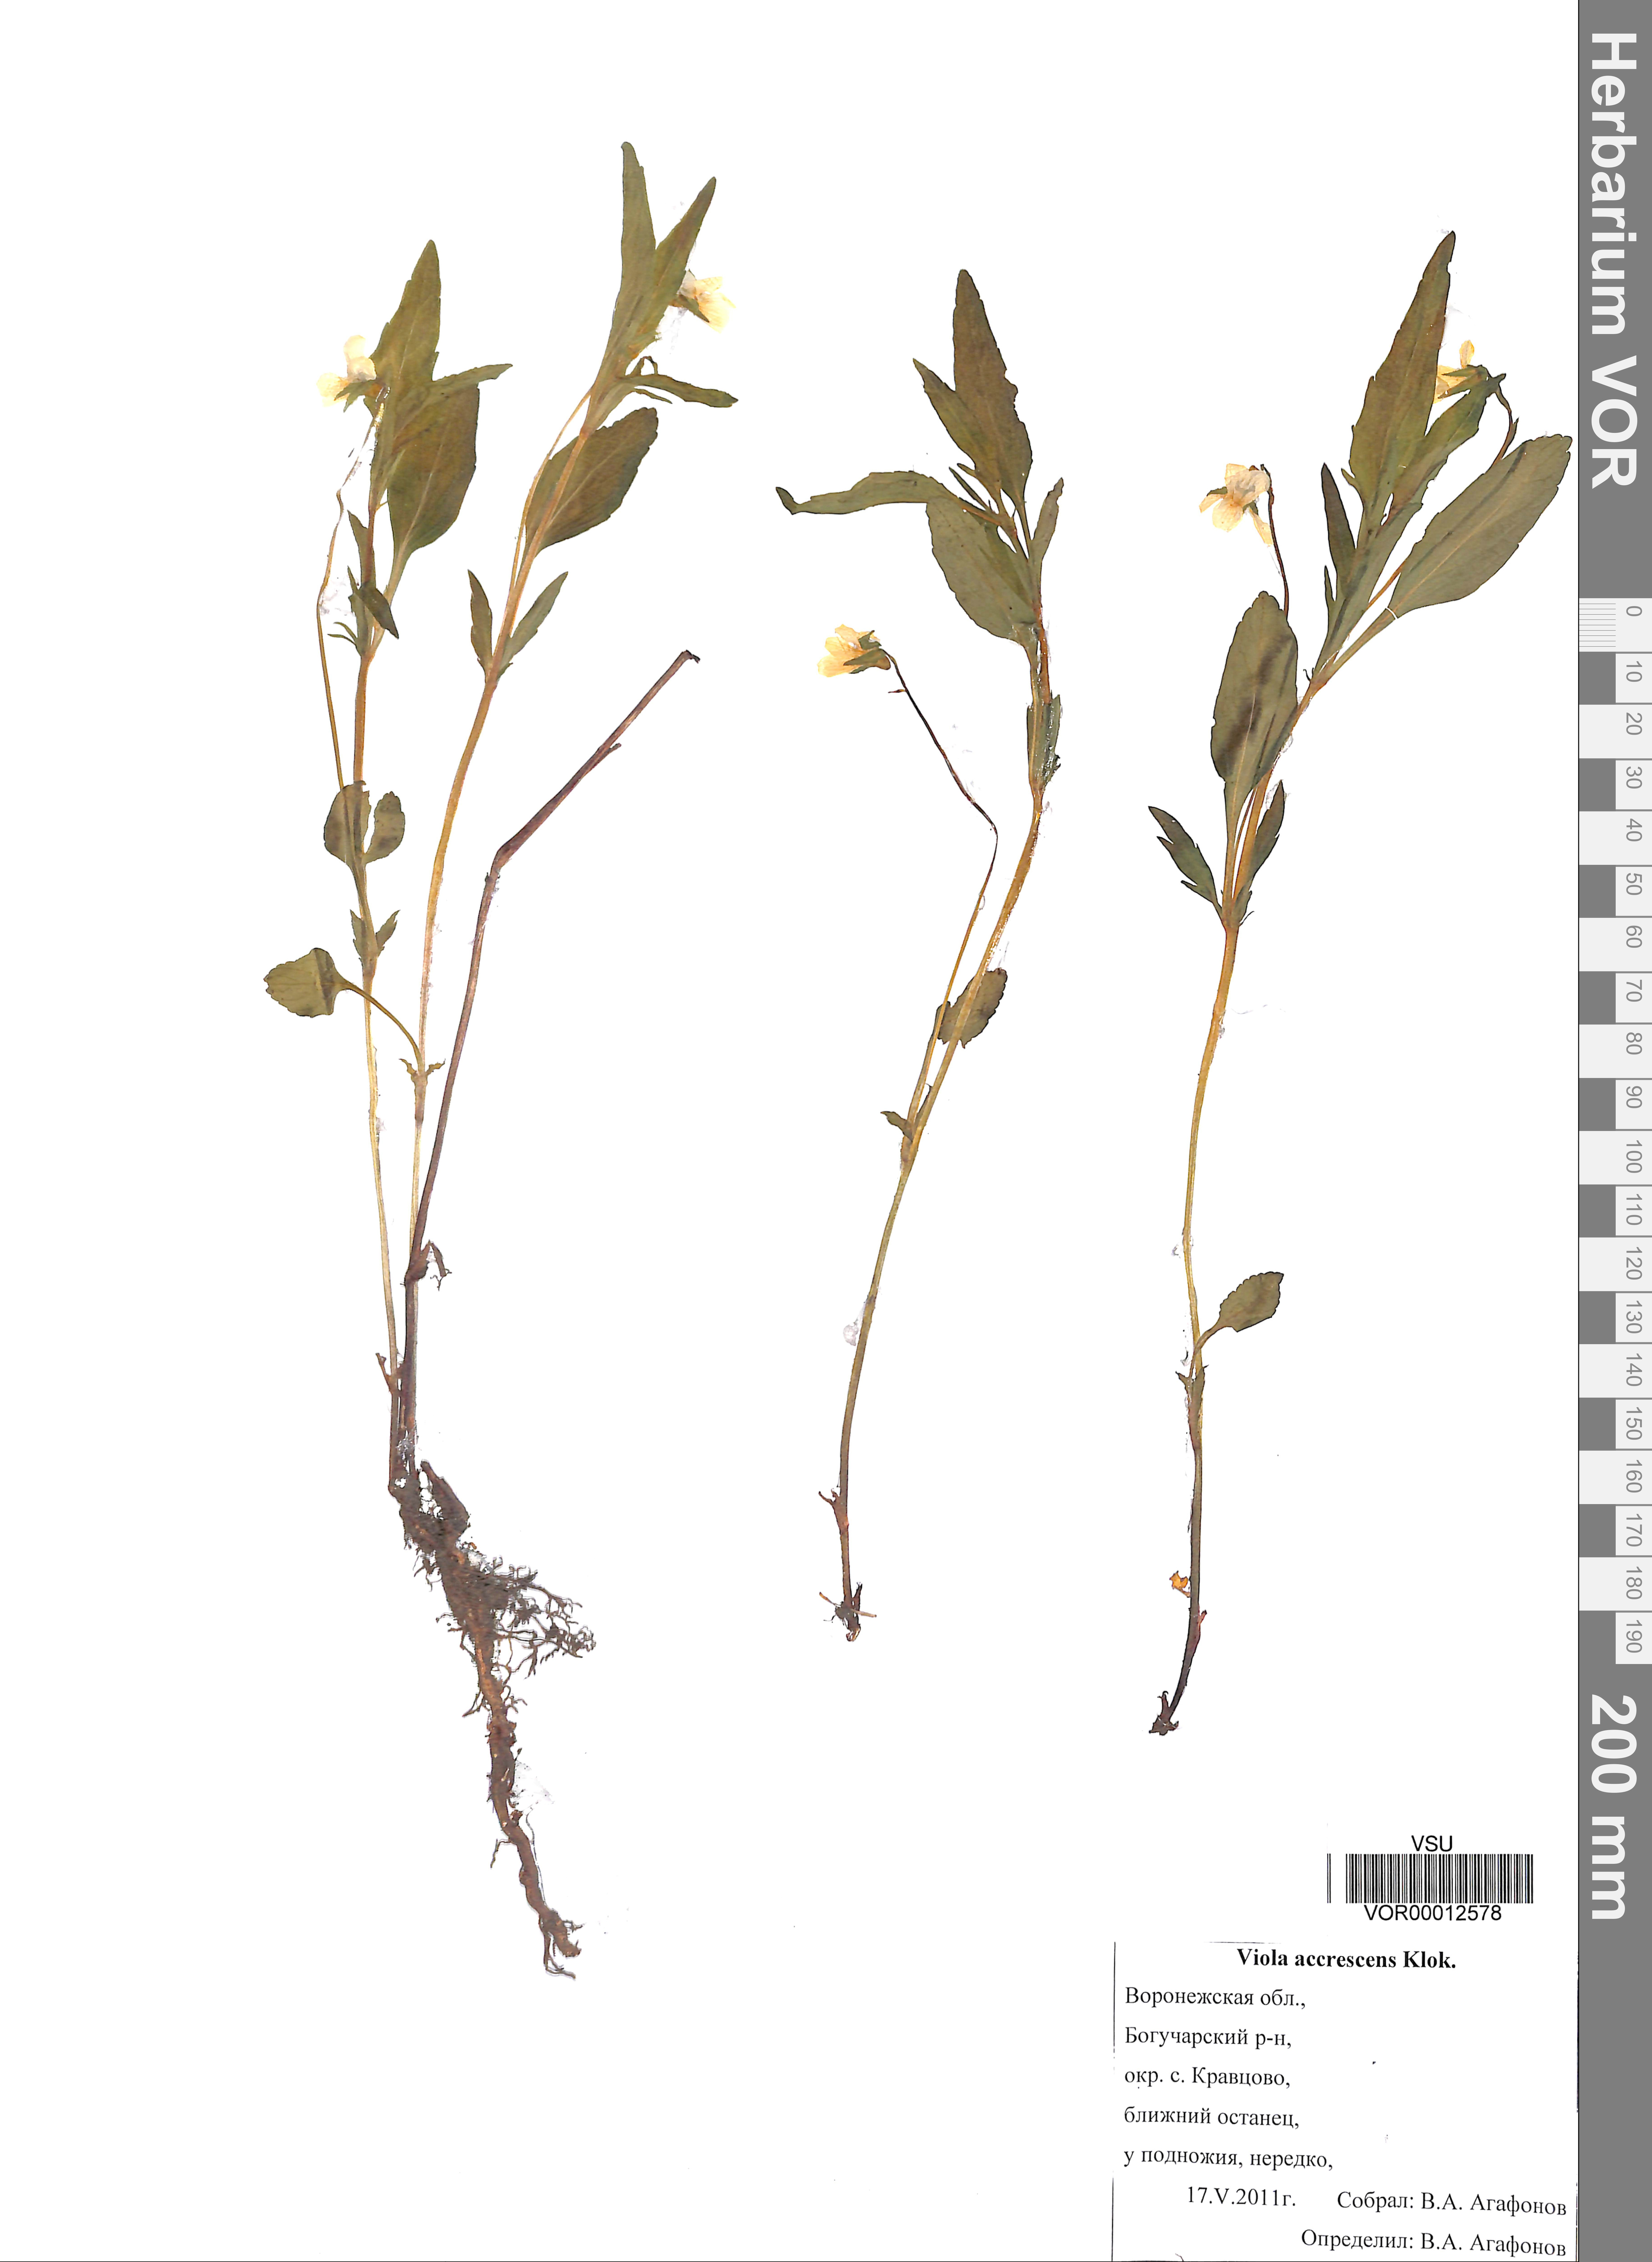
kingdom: Plantae
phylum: Tracheophyta
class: Magnoliopsida
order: Malpighiales
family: Violaceae
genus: Viola
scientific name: Viola pumila
